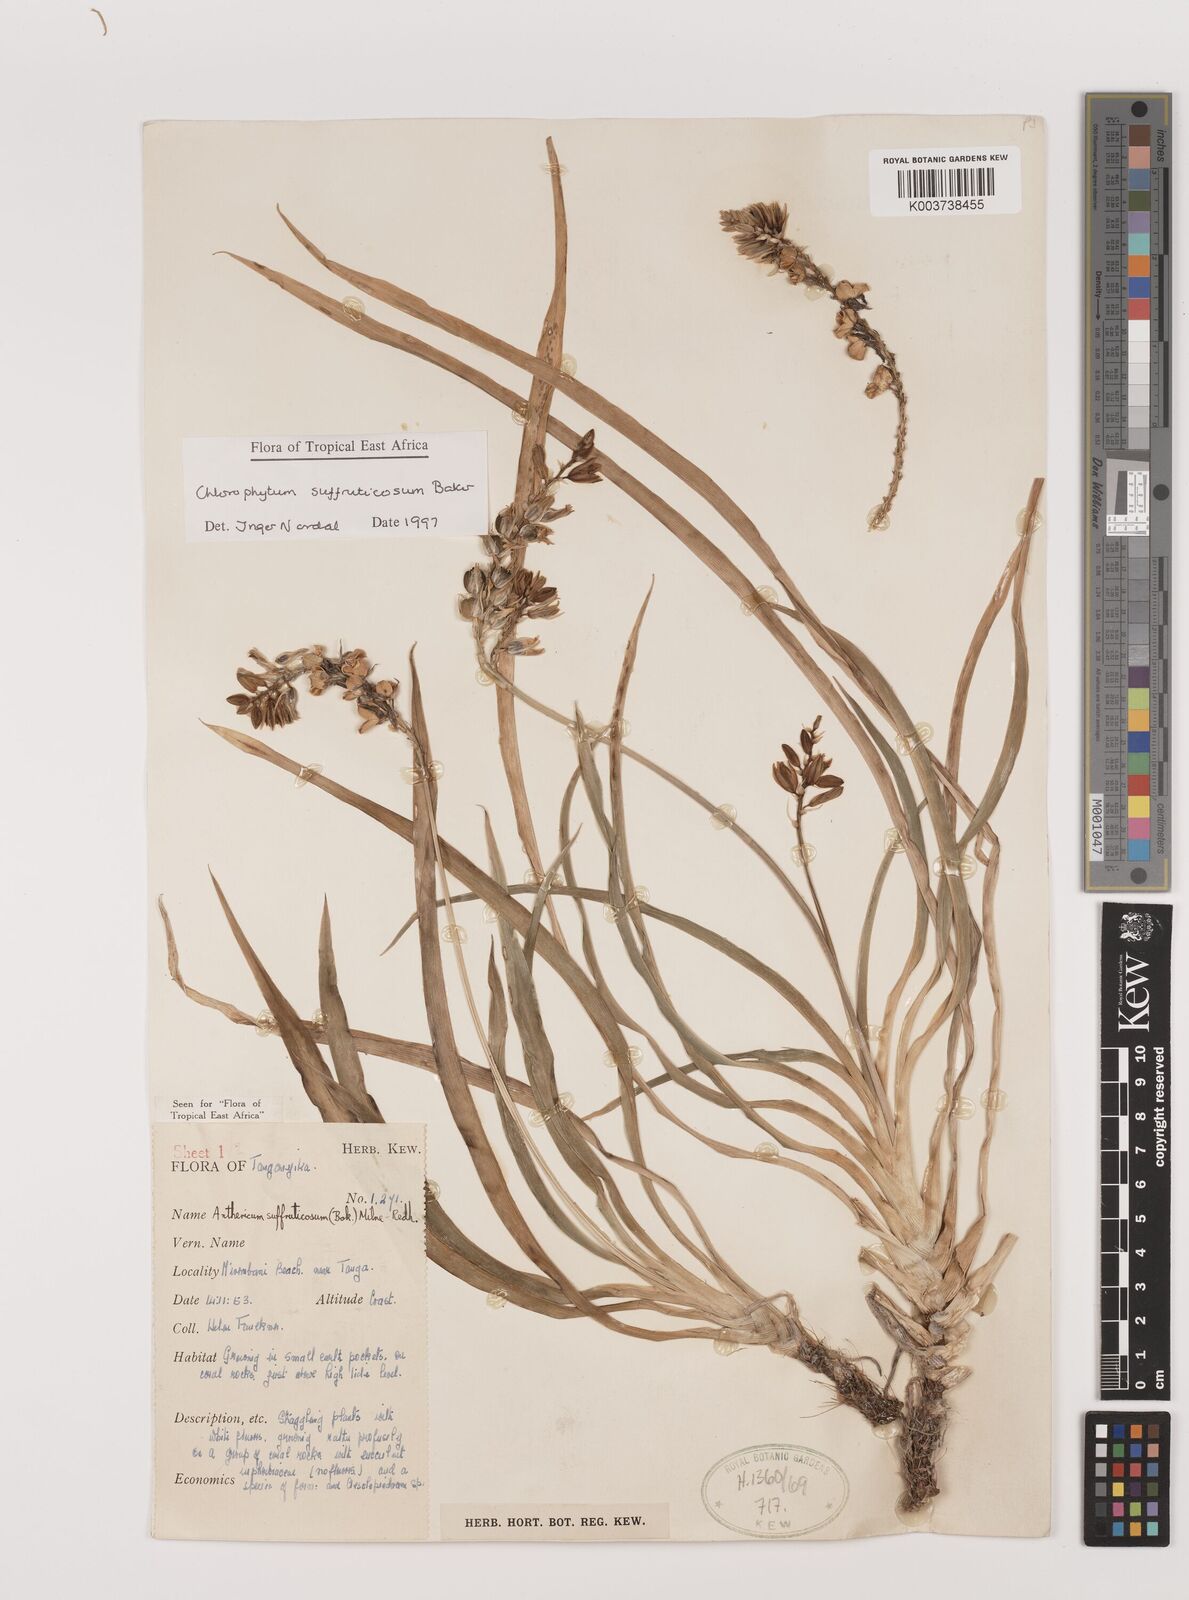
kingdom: Plantae
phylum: Tracheophyta
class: Liliopsida
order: Asparagales
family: Asparagaceae
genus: Chlorophytum
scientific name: Chlorophytum suffruticosum
